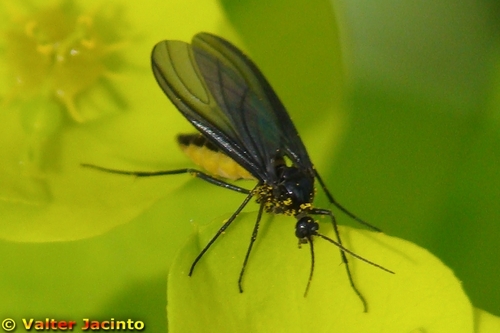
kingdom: Animalia
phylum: Arthropoda
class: Insecta
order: Diptera
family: Sciaridae
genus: Sciara
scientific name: Sciara hemerobioides
